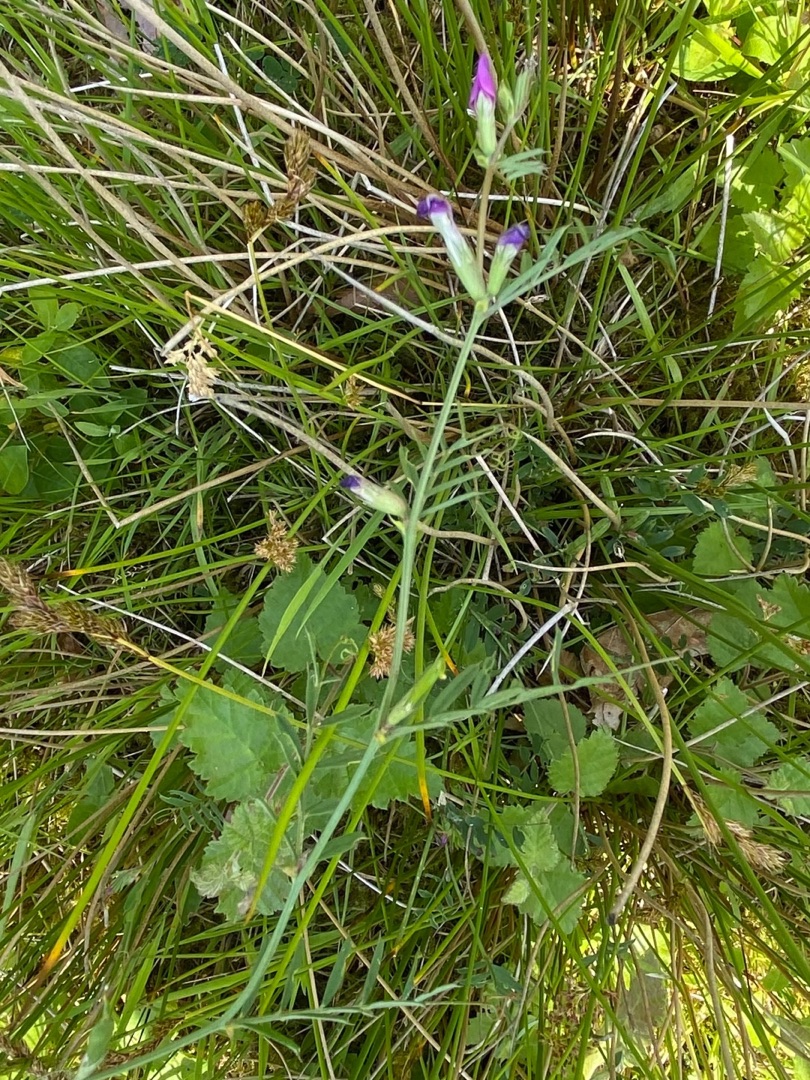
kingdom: Plantae
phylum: Tracheophyta
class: Magnoliopsida
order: Fabales
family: Fabaceae
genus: Vicia
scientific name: Vicia sativa
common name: Smalbladet vikke
